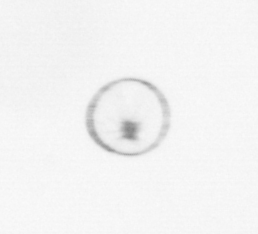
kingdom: Chromista
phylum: Myzozoa
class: Dinophyceae
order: Noctilucales
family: Noctilucaceae
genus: Noctiluca
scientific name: Noctiluca scintillans
